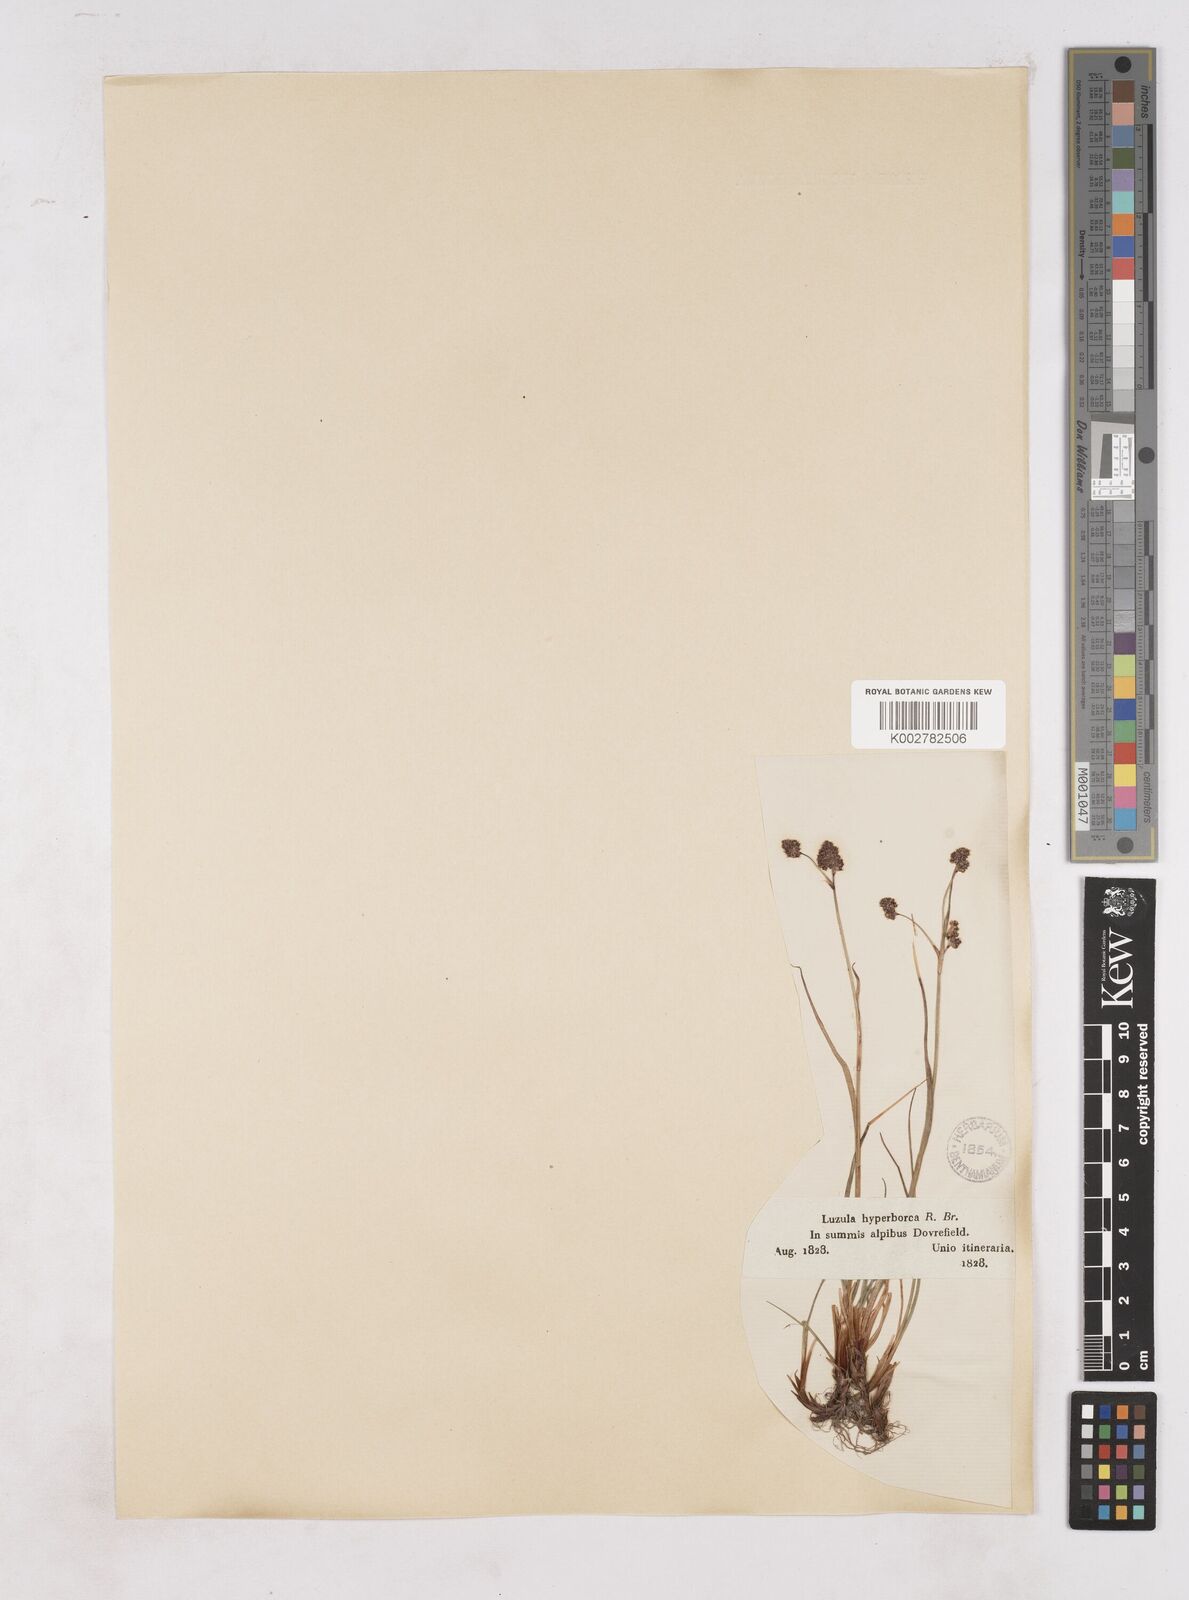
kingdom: Plantae
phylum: Tracheophyta
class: Liliopsida
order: Poales
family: Juncaceae
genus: Luzula
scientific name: Luzula arcuata
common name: Curved wood-rush
